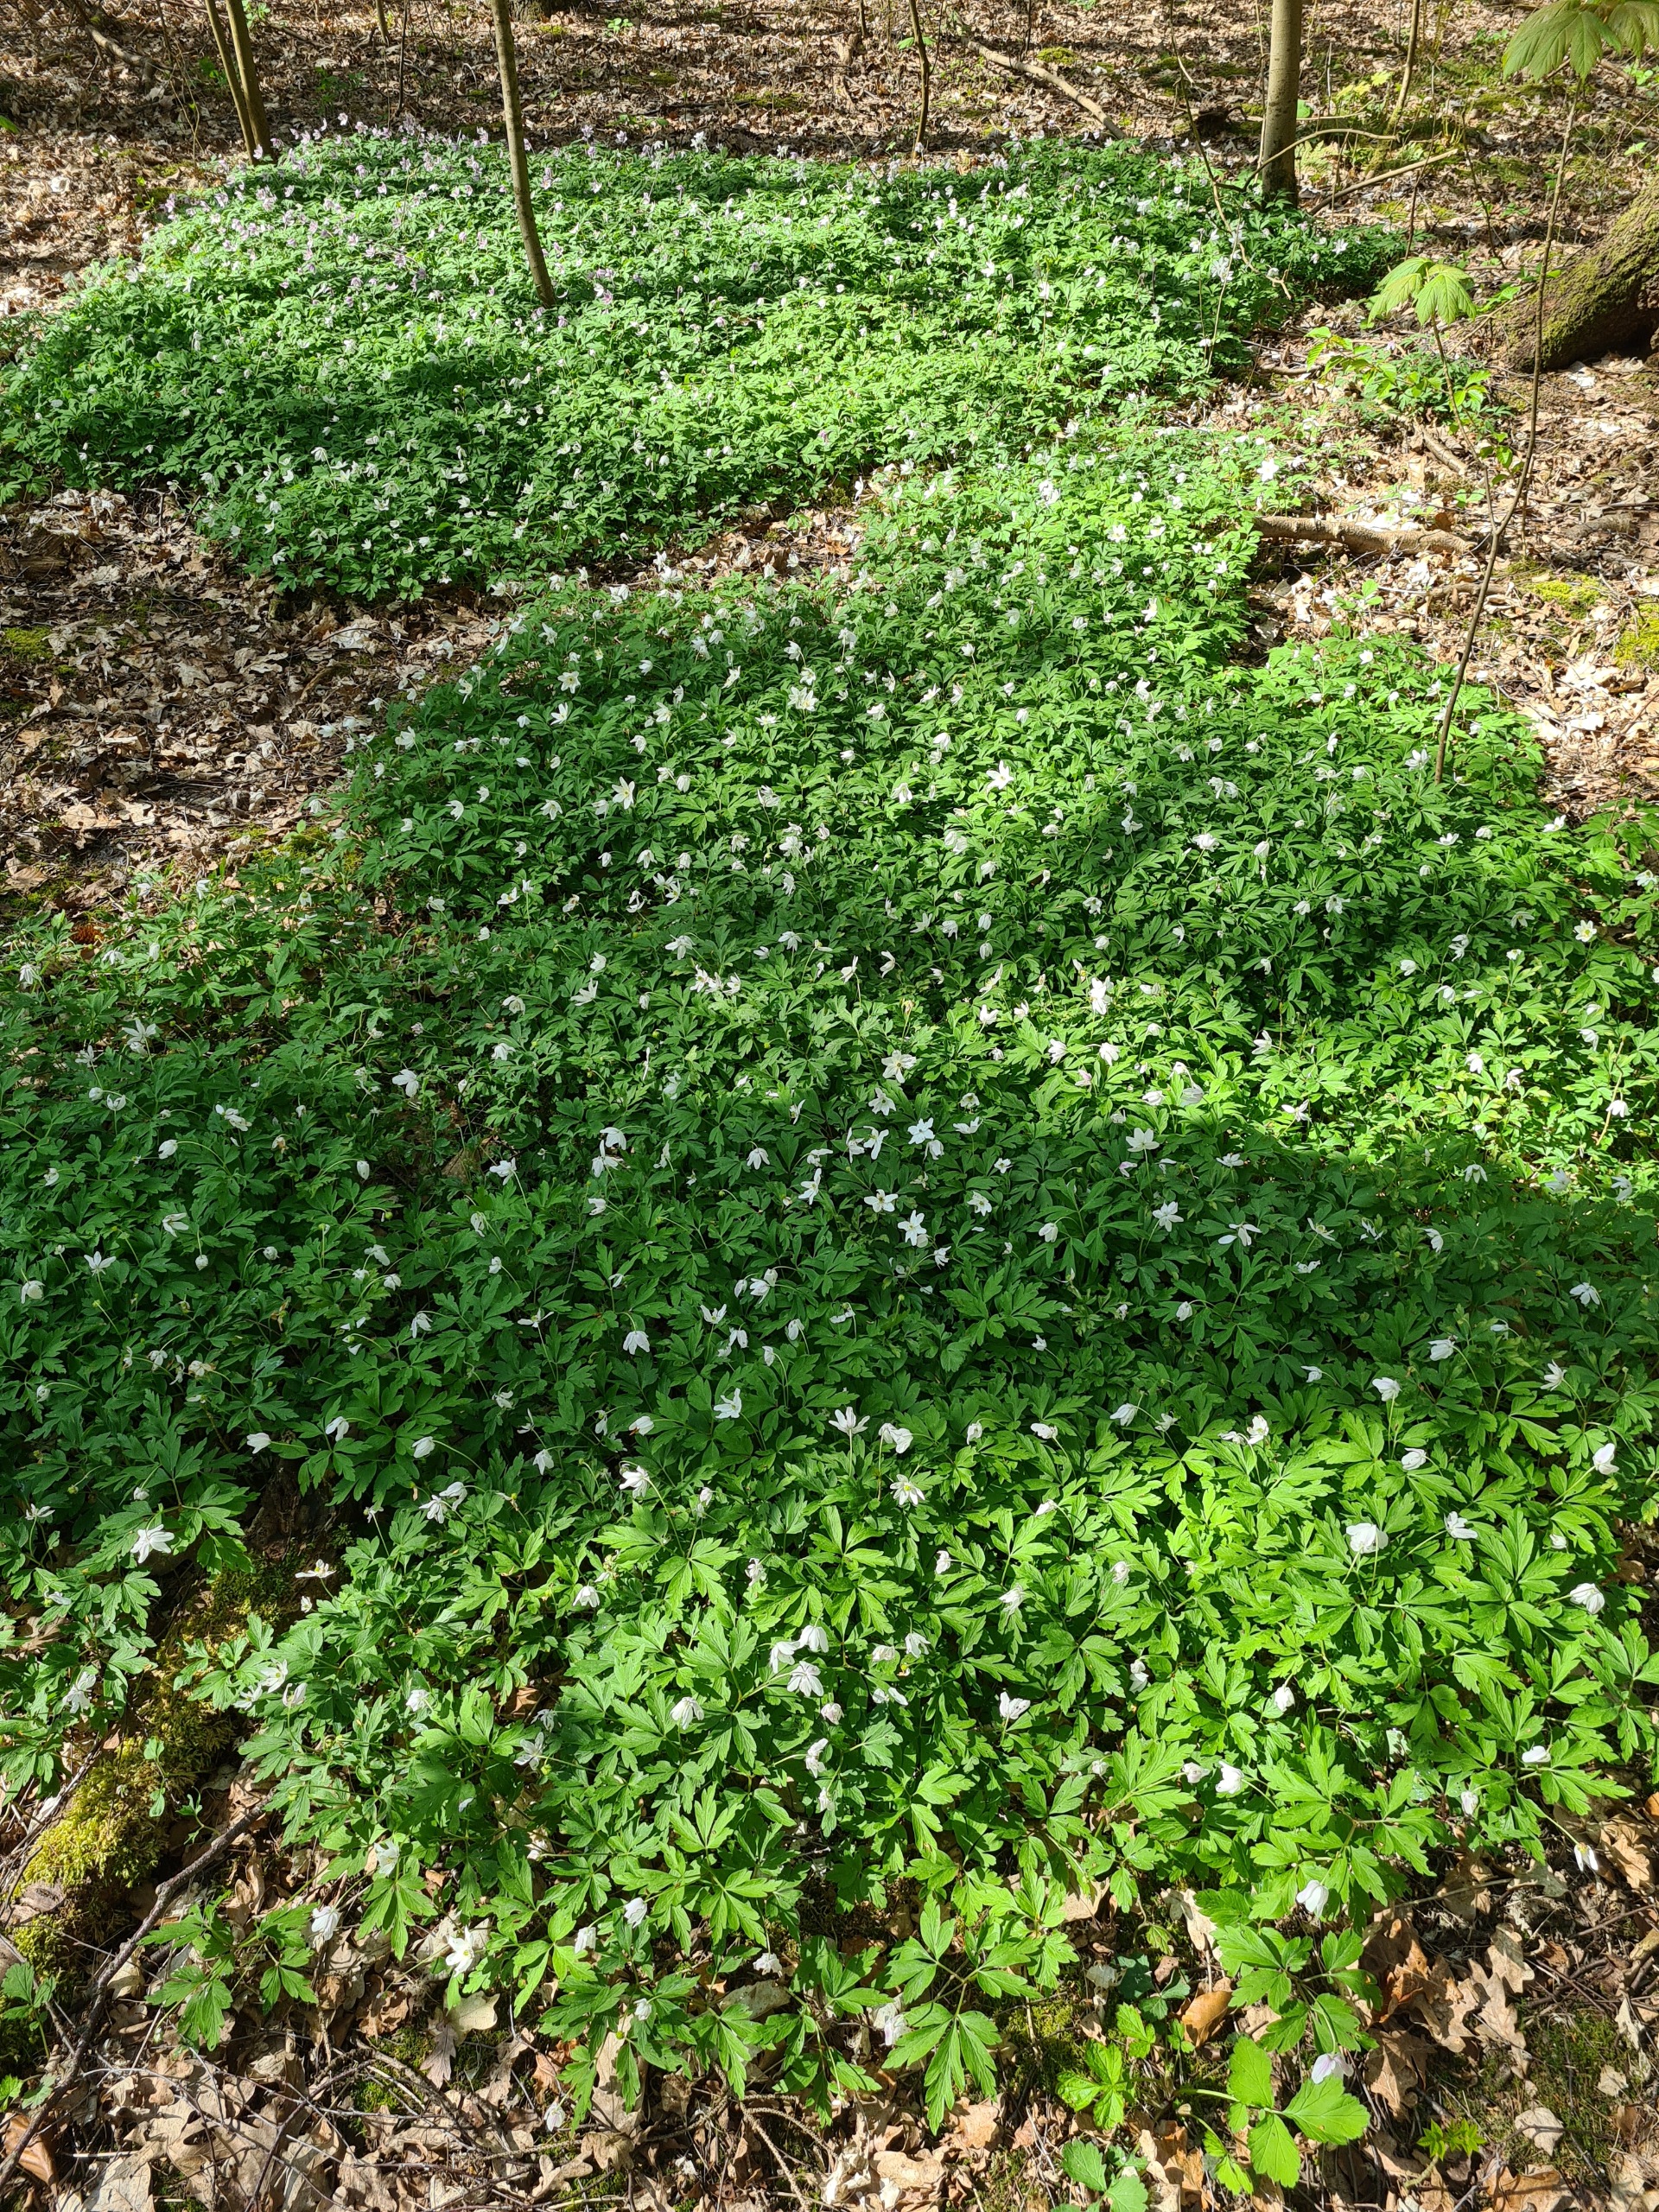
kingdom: Plantae
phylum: Tracheophyta
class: Magnoliopsida
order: Ranunculales
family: Ranunculaceae
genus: Anemone
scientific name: Anemone nemorosa
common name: Hvid anemone
